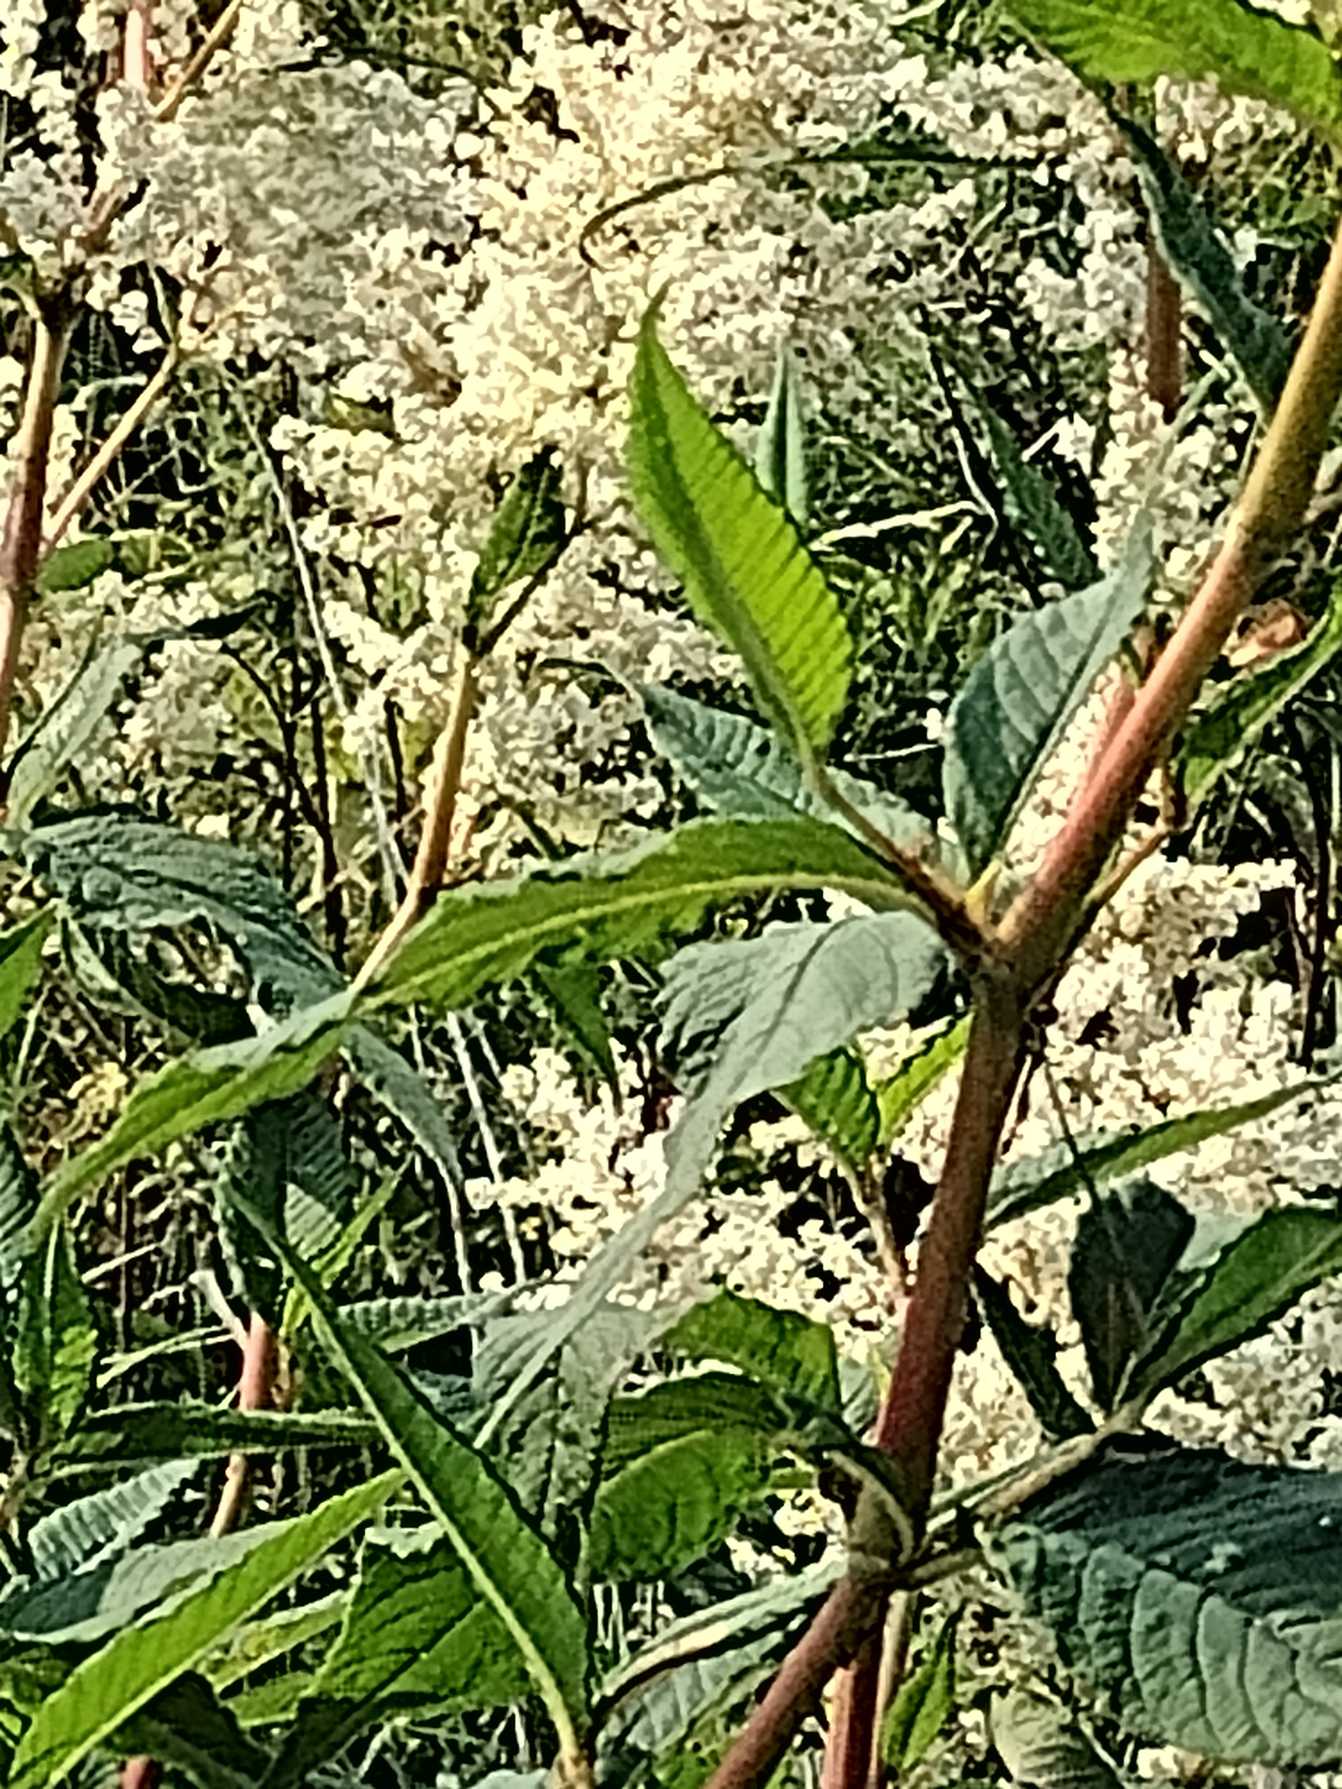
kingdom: Plantae
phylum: Tracheophyta
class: Magnoliopsida
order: Caryophyllales
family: Polygonaceae
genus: Koenigia
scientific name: Koenigia fennica
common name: Finsk pileurt
